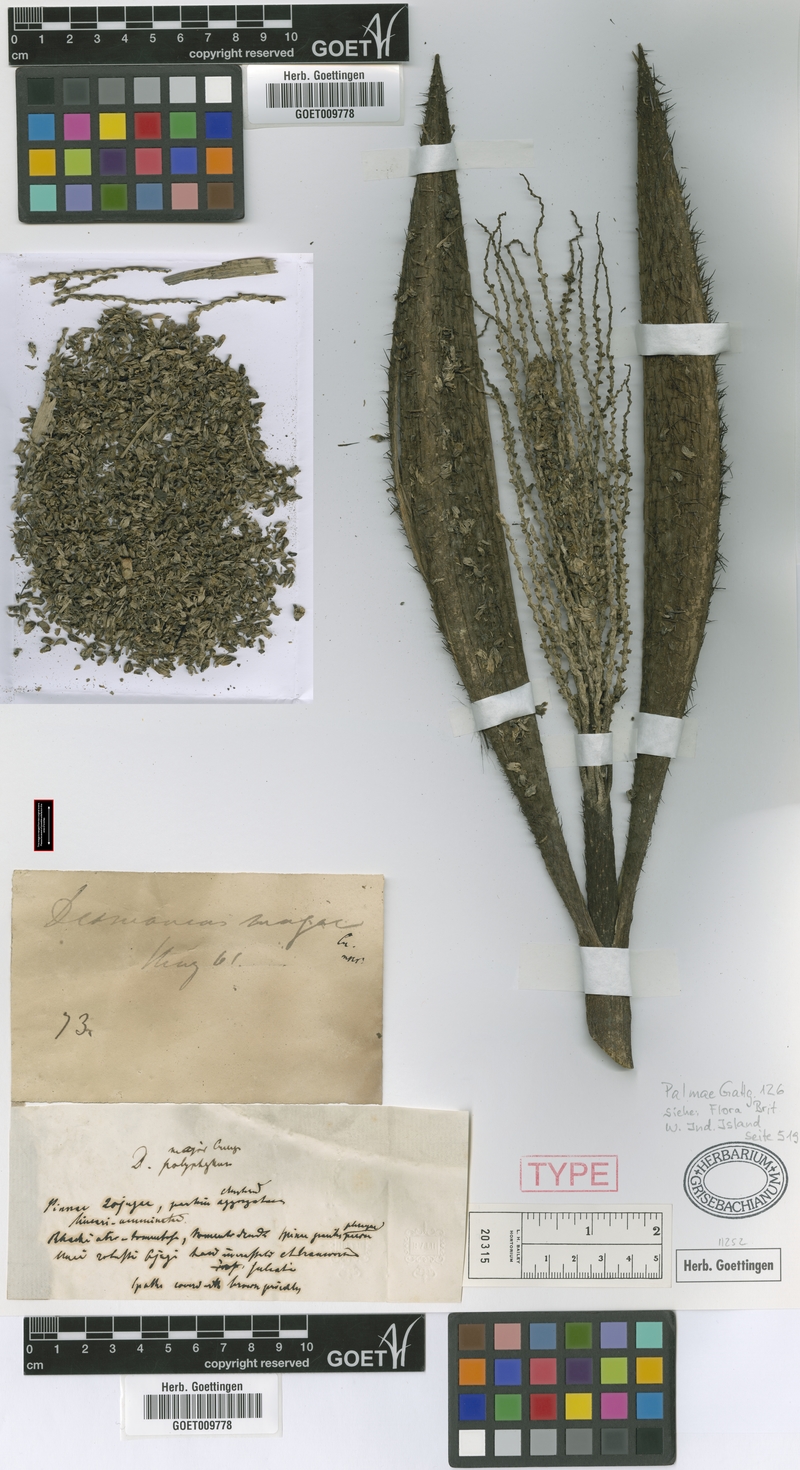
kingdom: Plantae
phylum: Tracheophyta
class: Liliopsida
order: Arecales
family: Arecaceae
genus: Desmoncus
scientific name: Desmoncus orthacanthos
